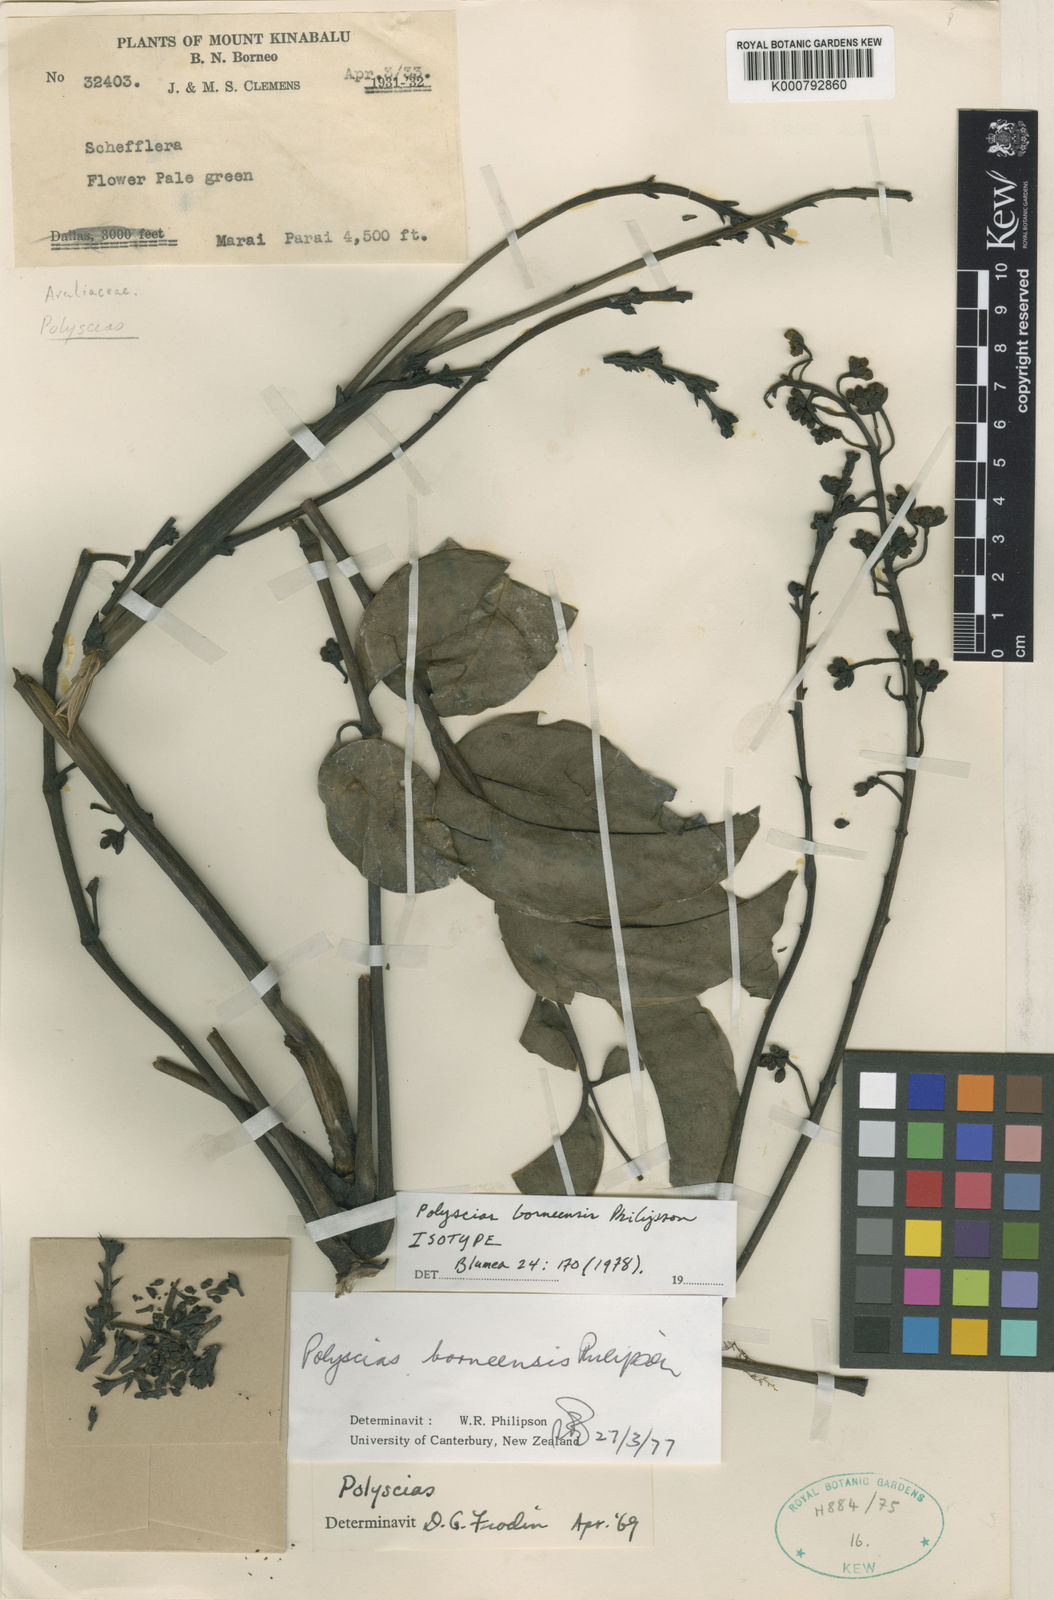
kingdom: Plantae
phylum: Tracheophyta
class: Magnoliopsida
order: Apiales
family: Araliaceae
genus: Polyscias
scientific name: Polyscias borneensis
